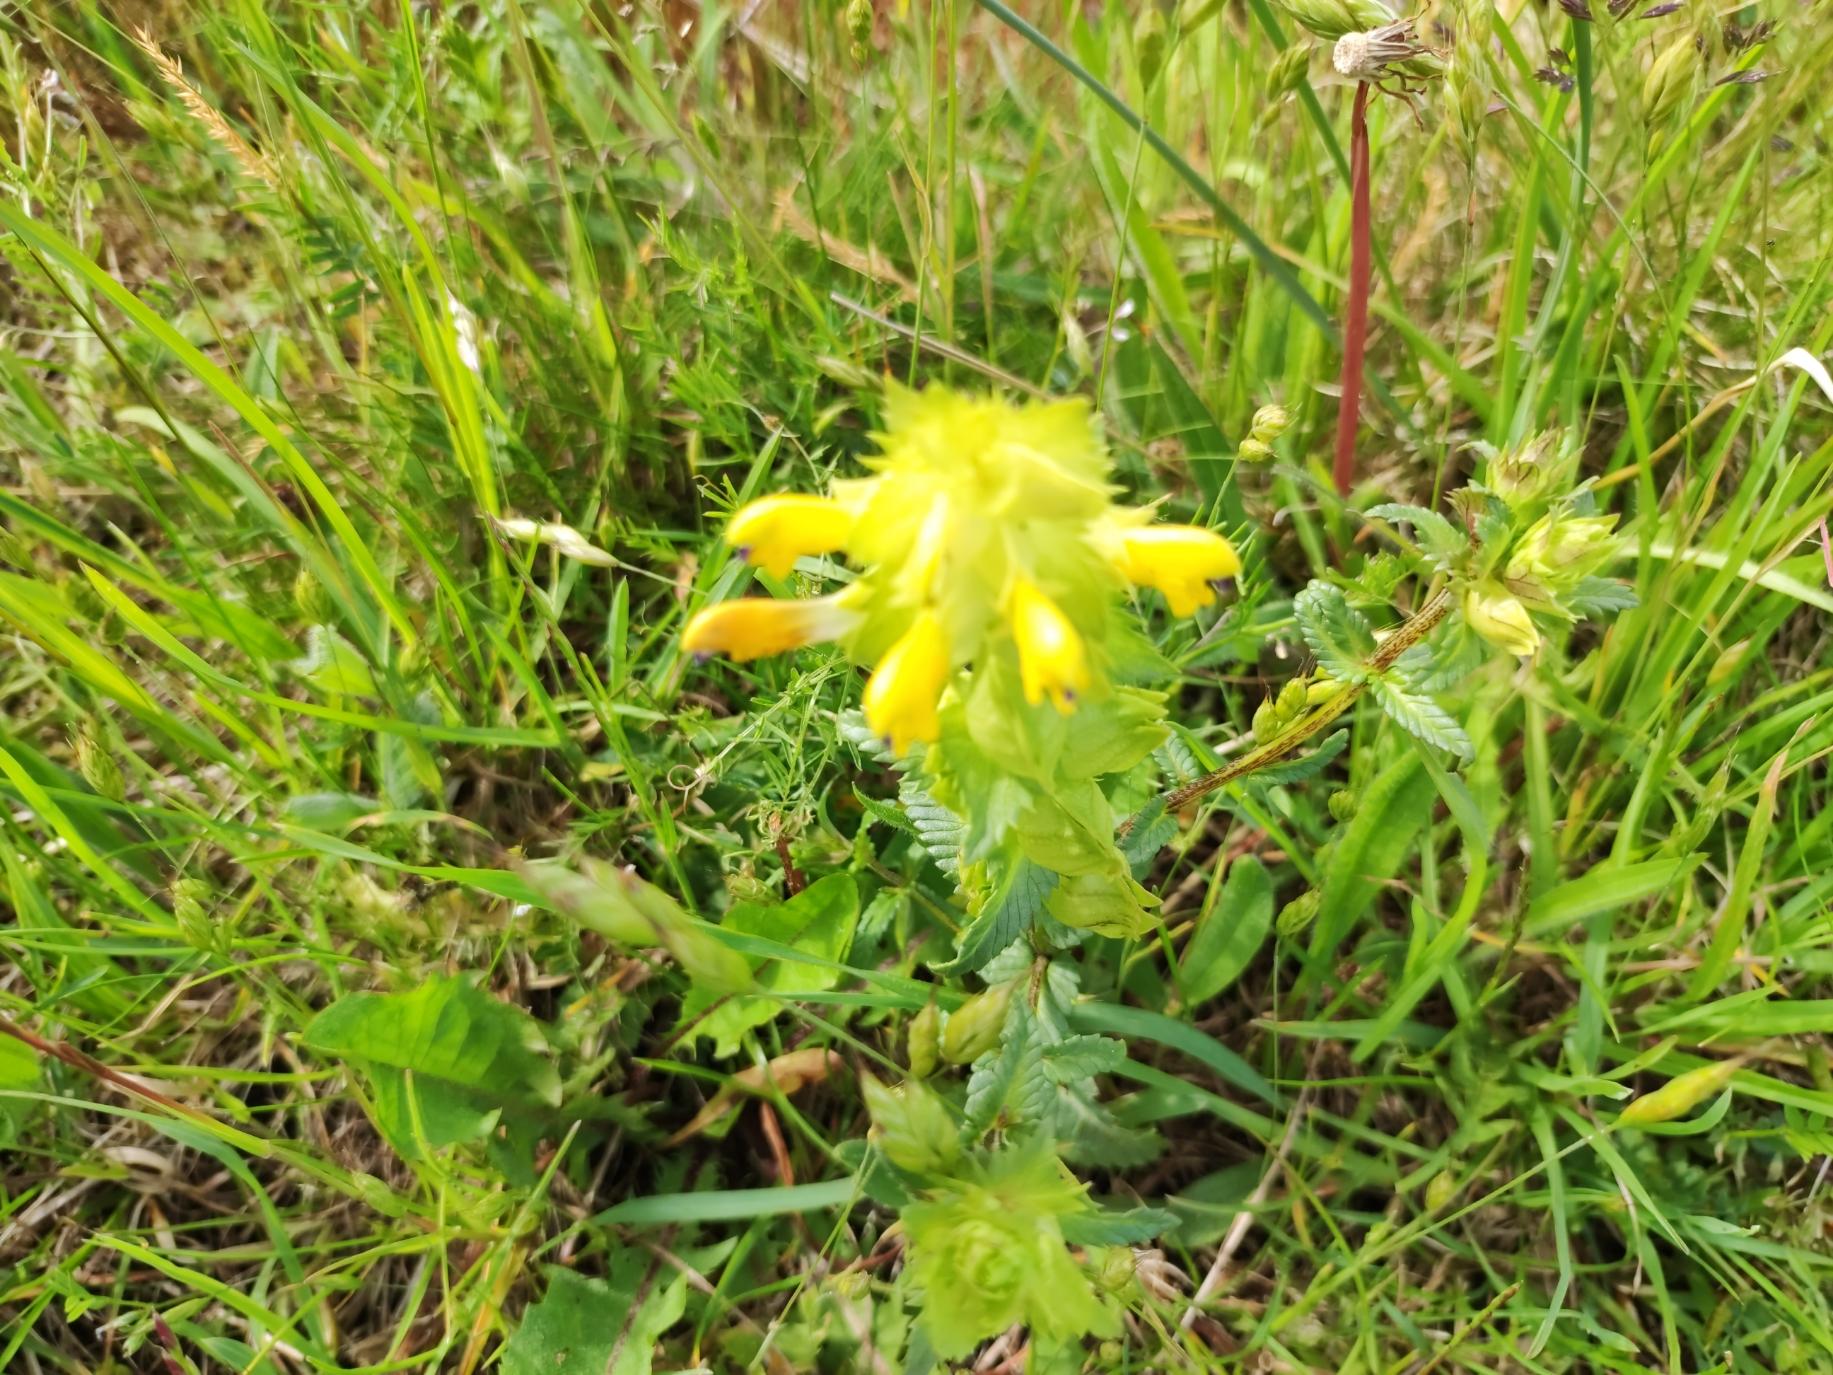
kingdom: Plantae
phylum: Tracheophyta
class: Magnoliopsida
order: Lamiales
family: Orobanchaceae
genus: Rhinanthus
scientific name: Rhinanthus
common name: Stor skjaller
